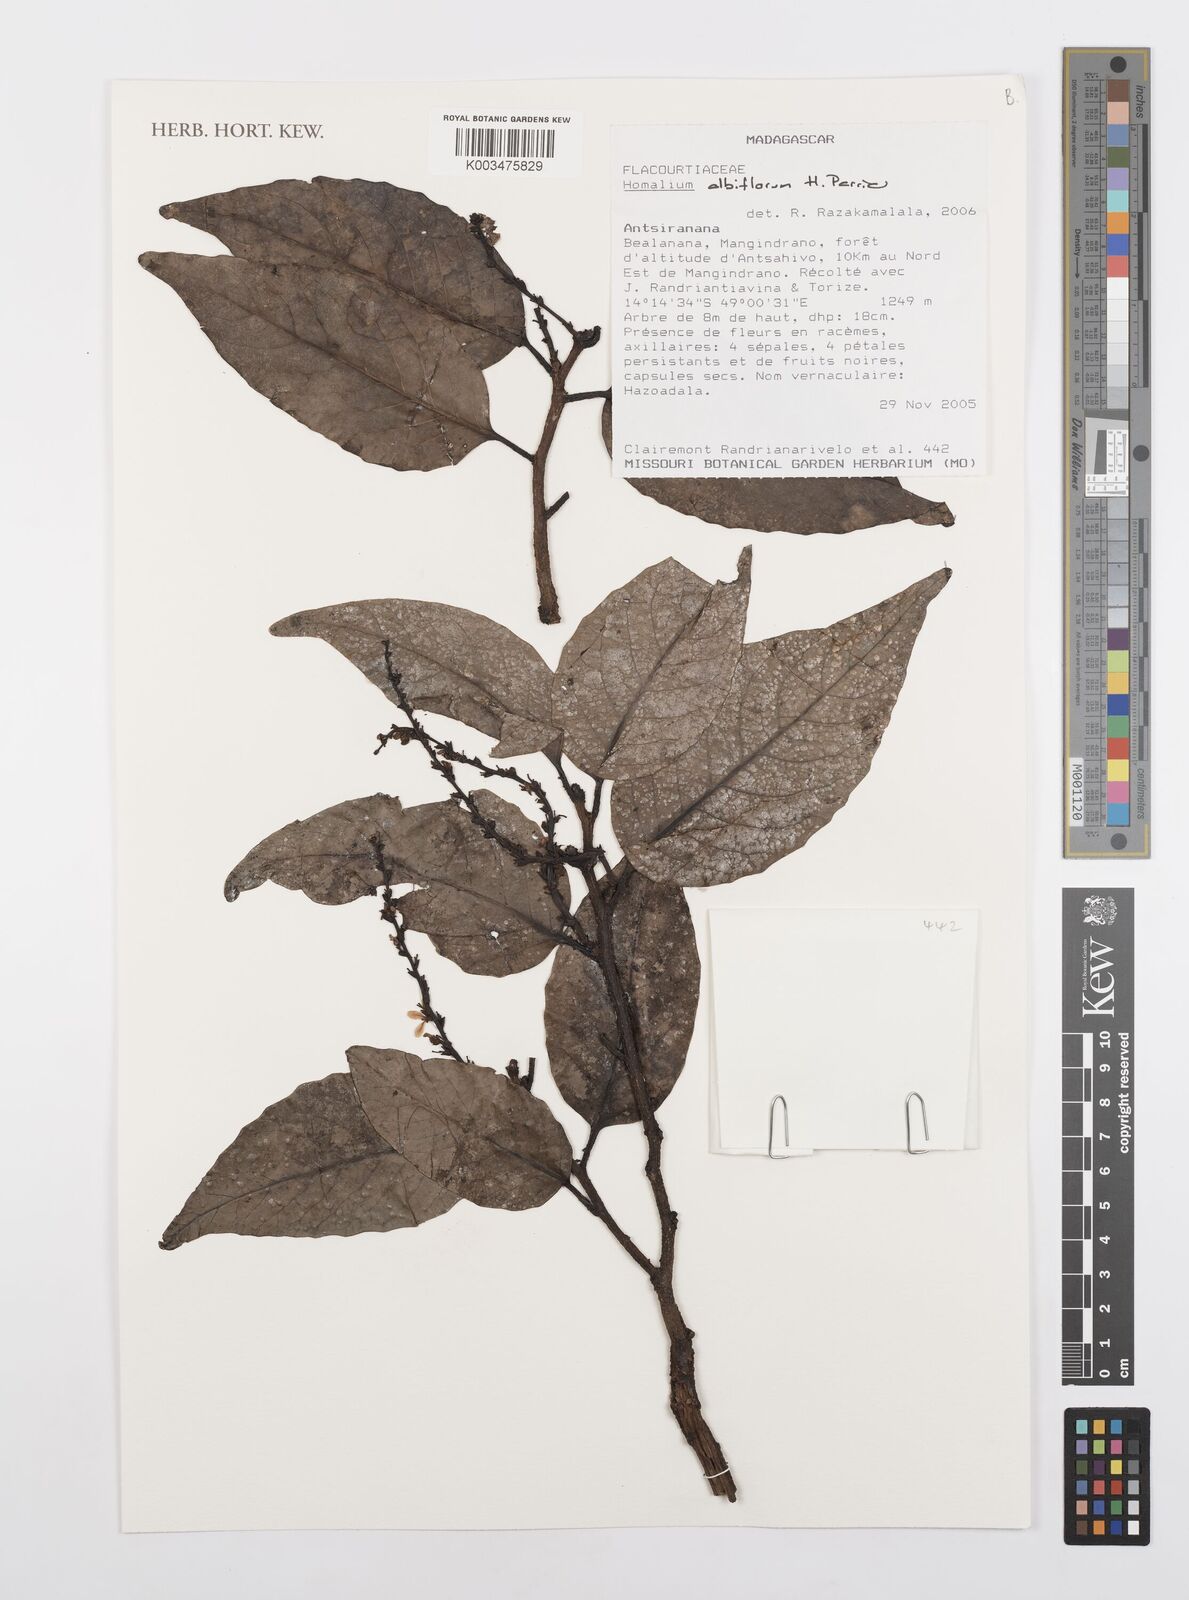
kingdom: Plantae
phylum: Tracheophyta
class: Magnoliopsida
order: Malpighiales
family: Salicaceae
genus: Homalium
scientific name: Homalium albiflorum
